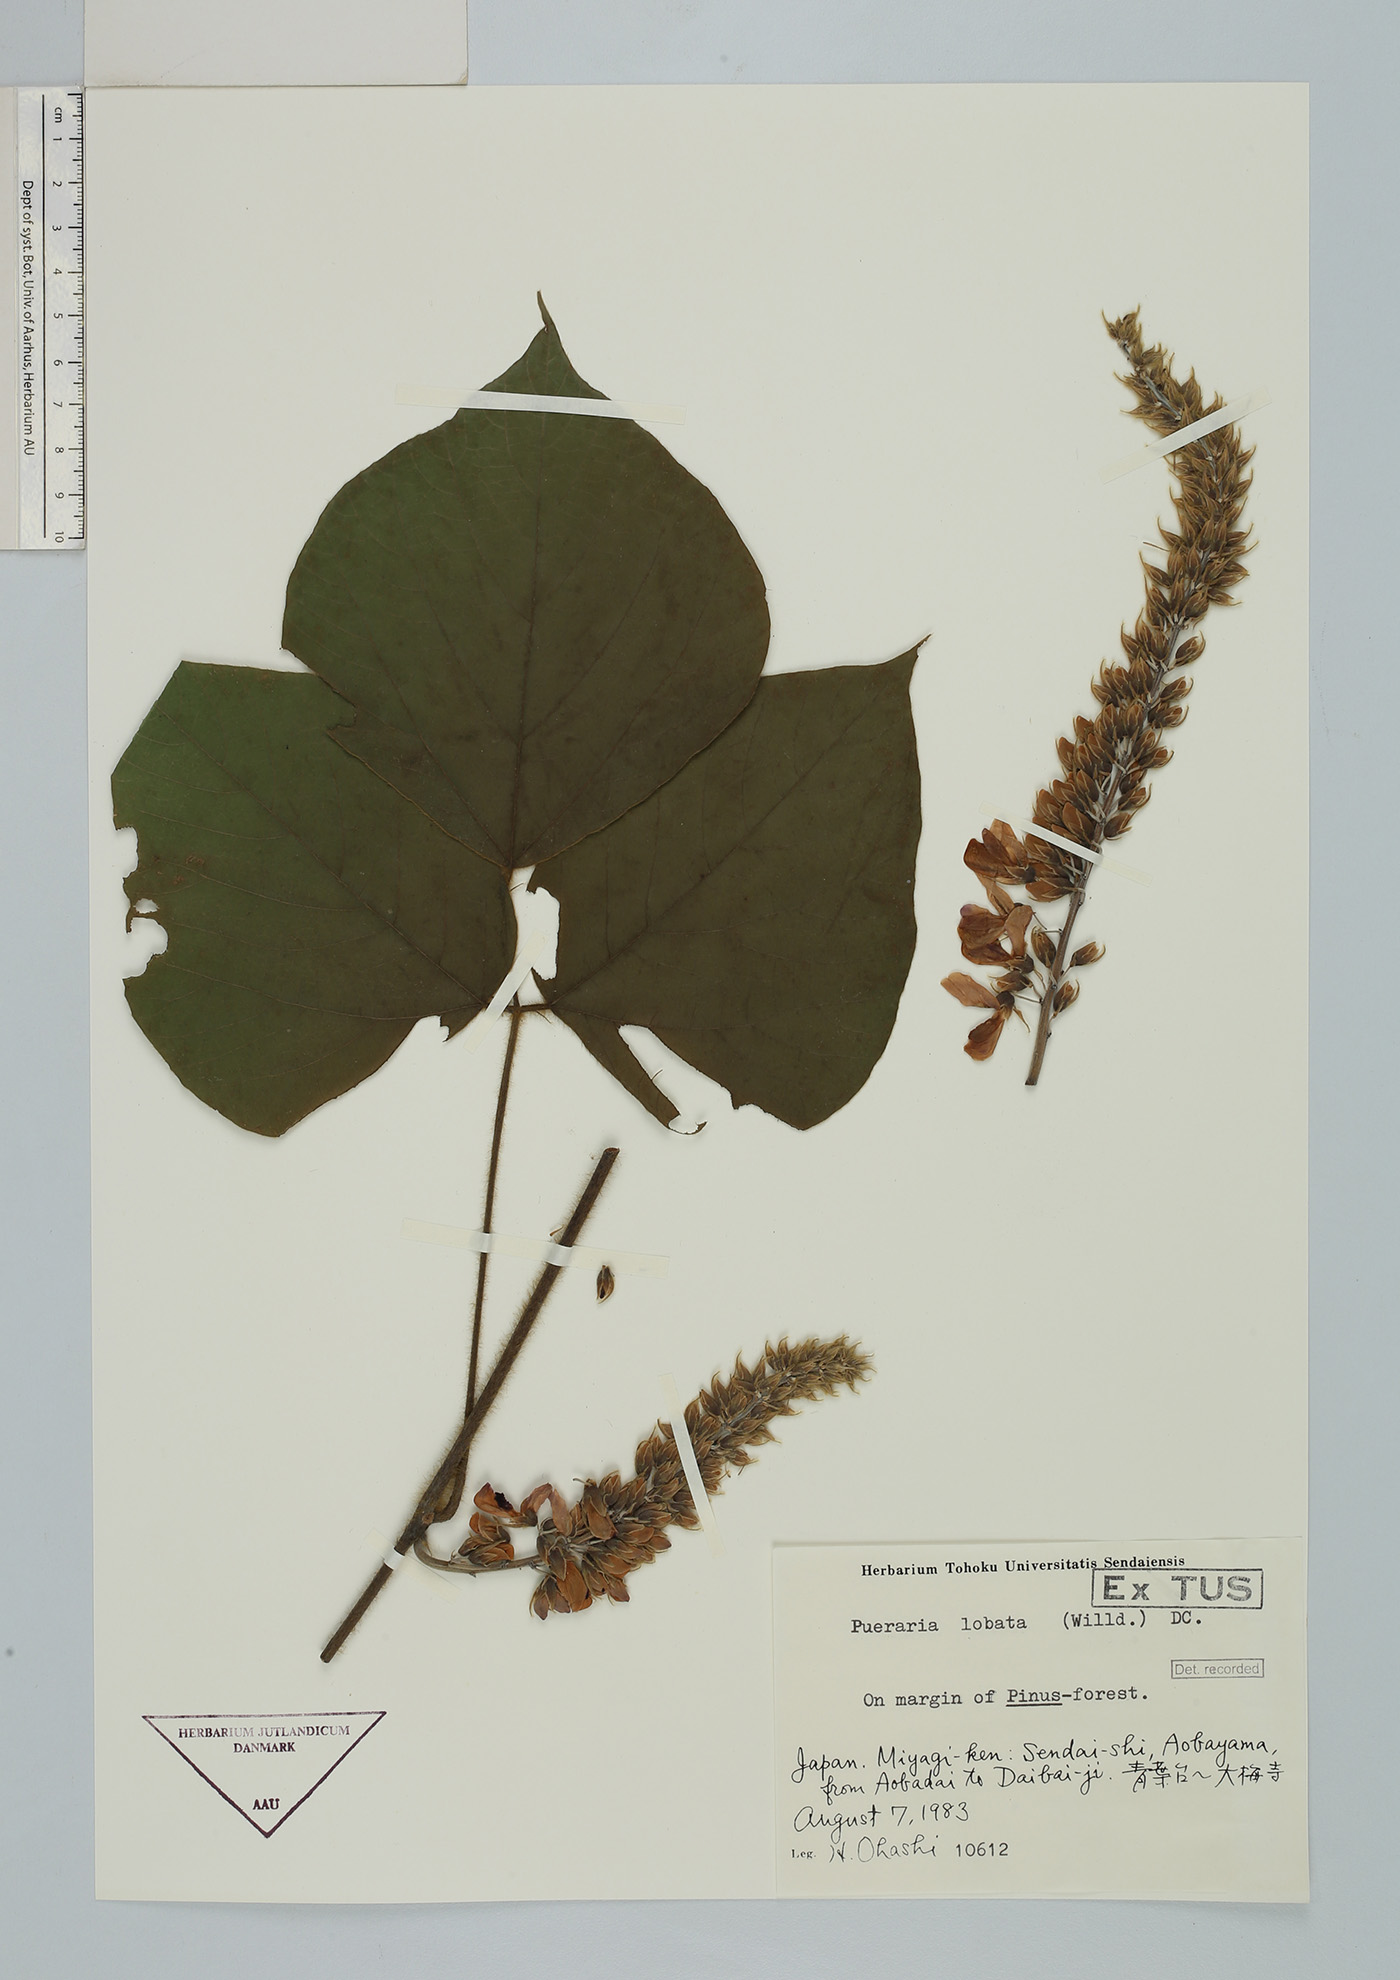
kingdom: Plantae
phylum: Tracheophyta
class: Magnoliopsida
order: Fabales
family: Fabaceae
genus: Pueraria
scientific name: Pueraria montana
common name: Kudzu
